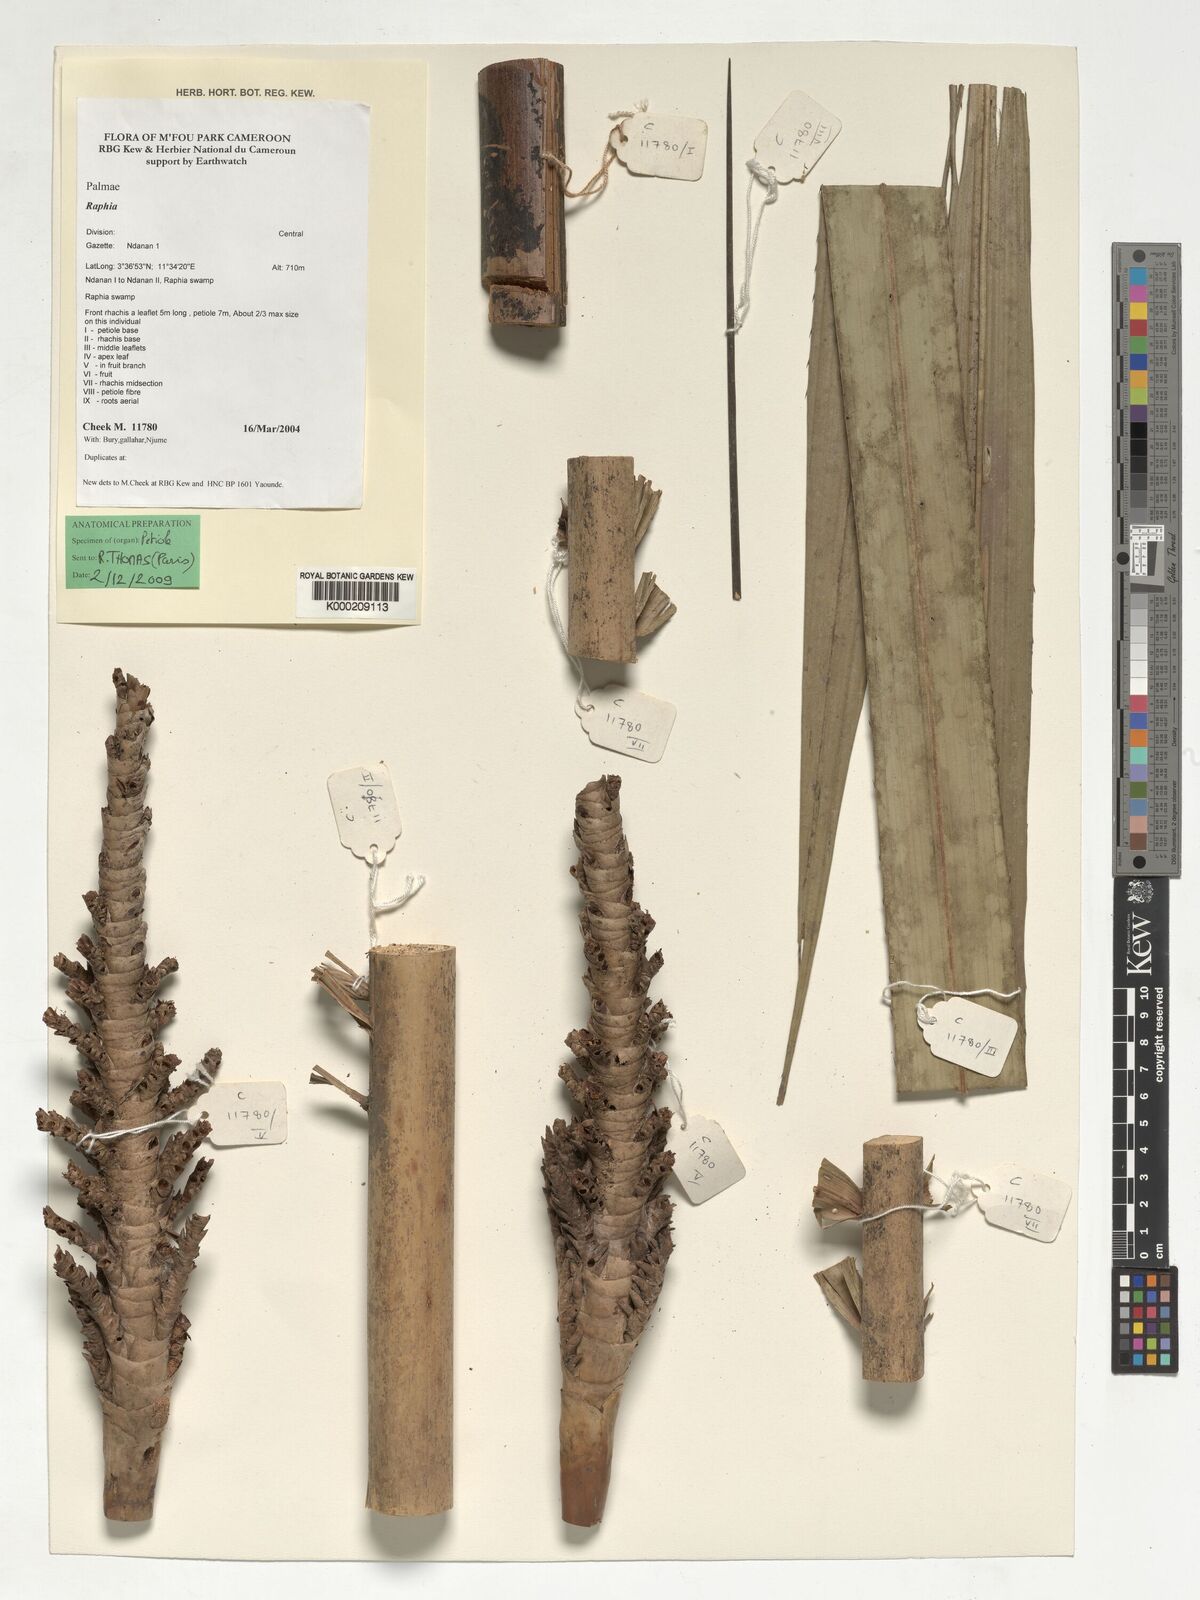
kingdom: Plantae
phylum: Tracheophyta
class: Liliopsida
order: Arecales
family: Arecaceae
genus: Raphia
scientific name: Raphia
